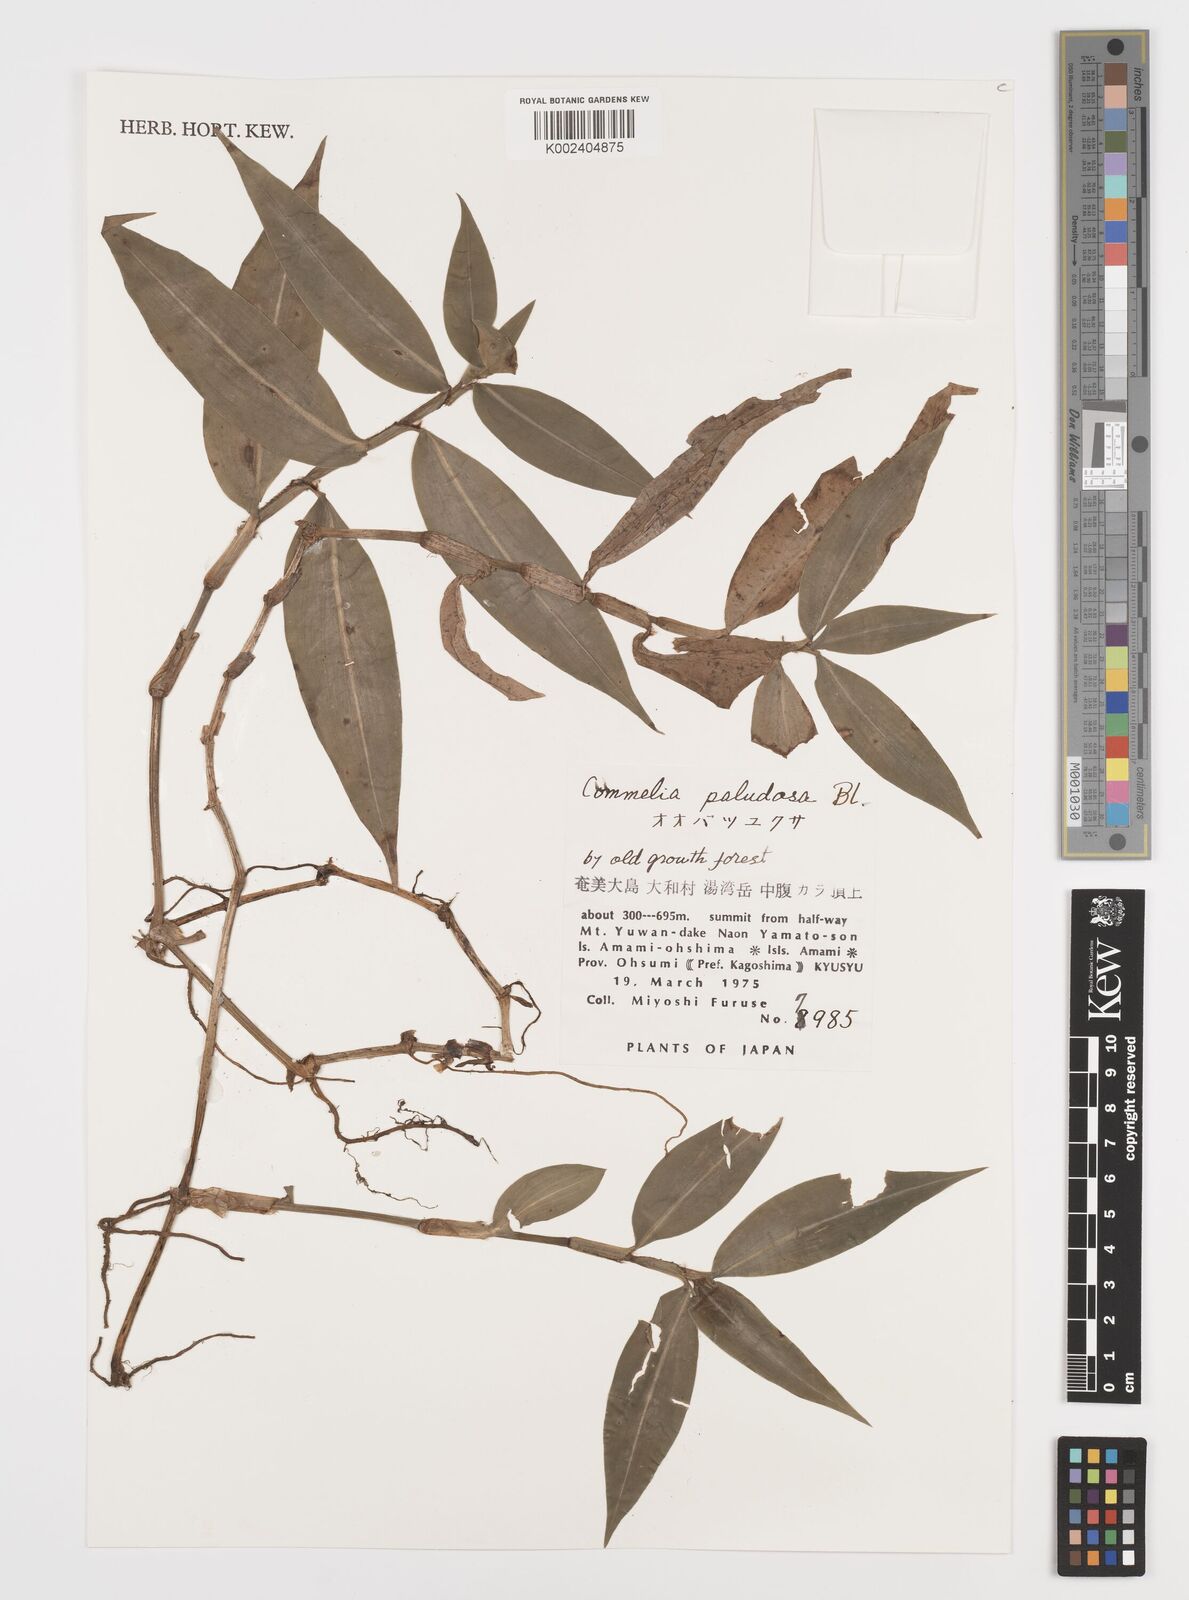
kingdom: Plantae
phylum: Tracheophyta
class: Liliopsida
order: Commelinales
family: Commelinaceae
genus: Commelina
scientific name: Commelina paludosa
